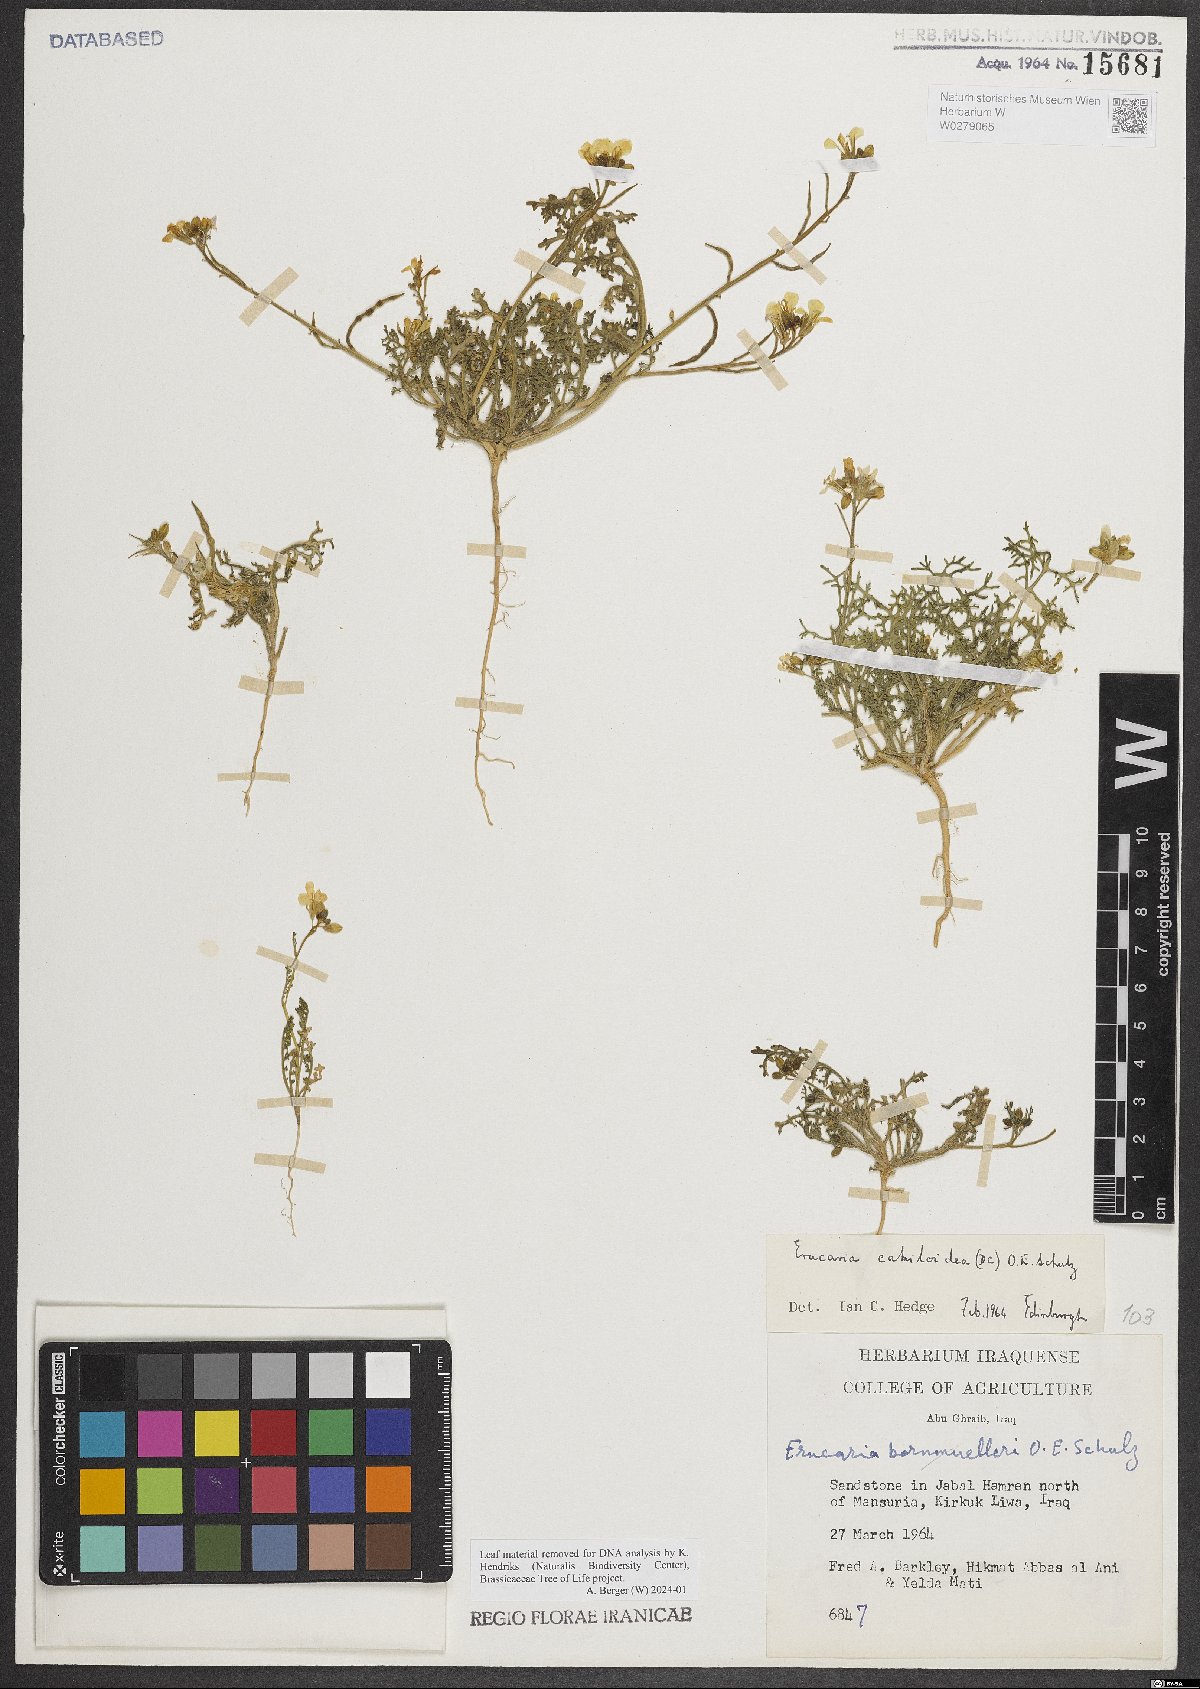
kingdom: Plantae
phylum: Tracheophyta
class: Magnoliopsida
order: Brassicales
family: Brassicaceae
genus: Erucaria
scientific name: Erucaria cakiloidea
